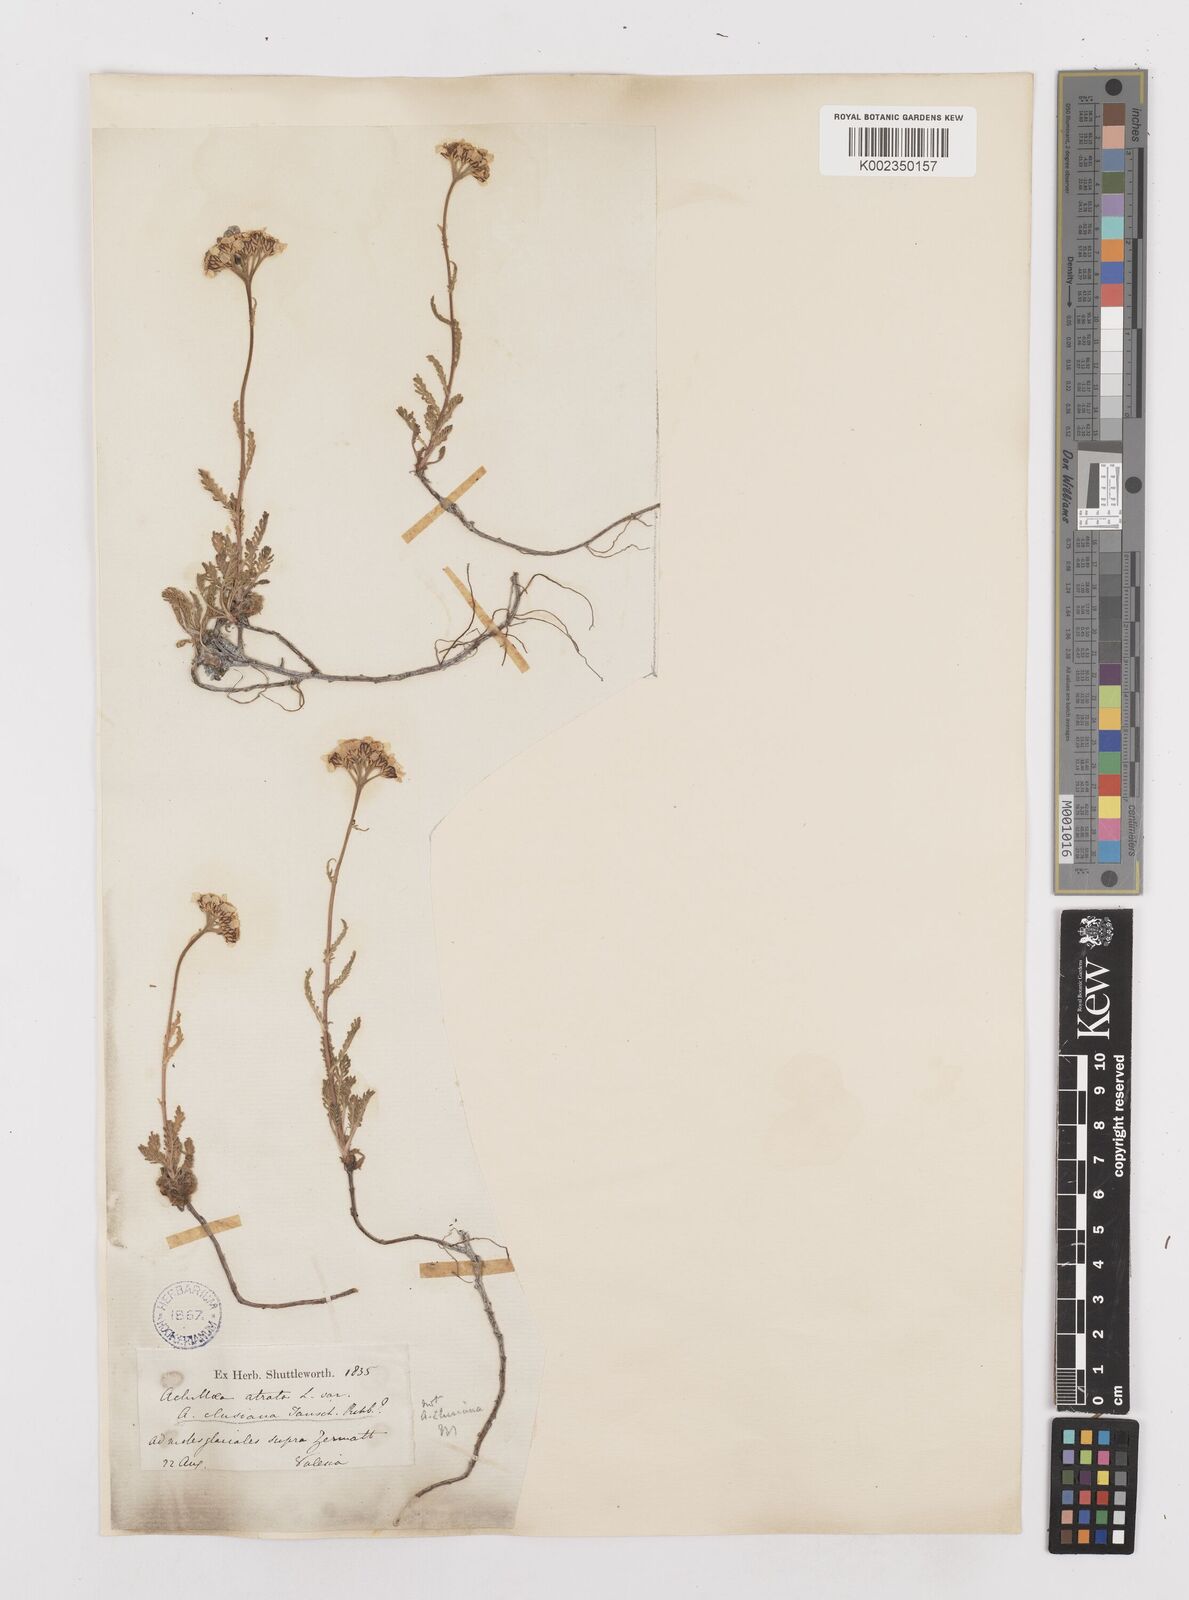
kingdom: Plantae
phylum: Tracheophyta
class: Magnoliopsida
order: Asterales
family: Asteraceae
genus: Achillea
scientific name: Achillea atrata
